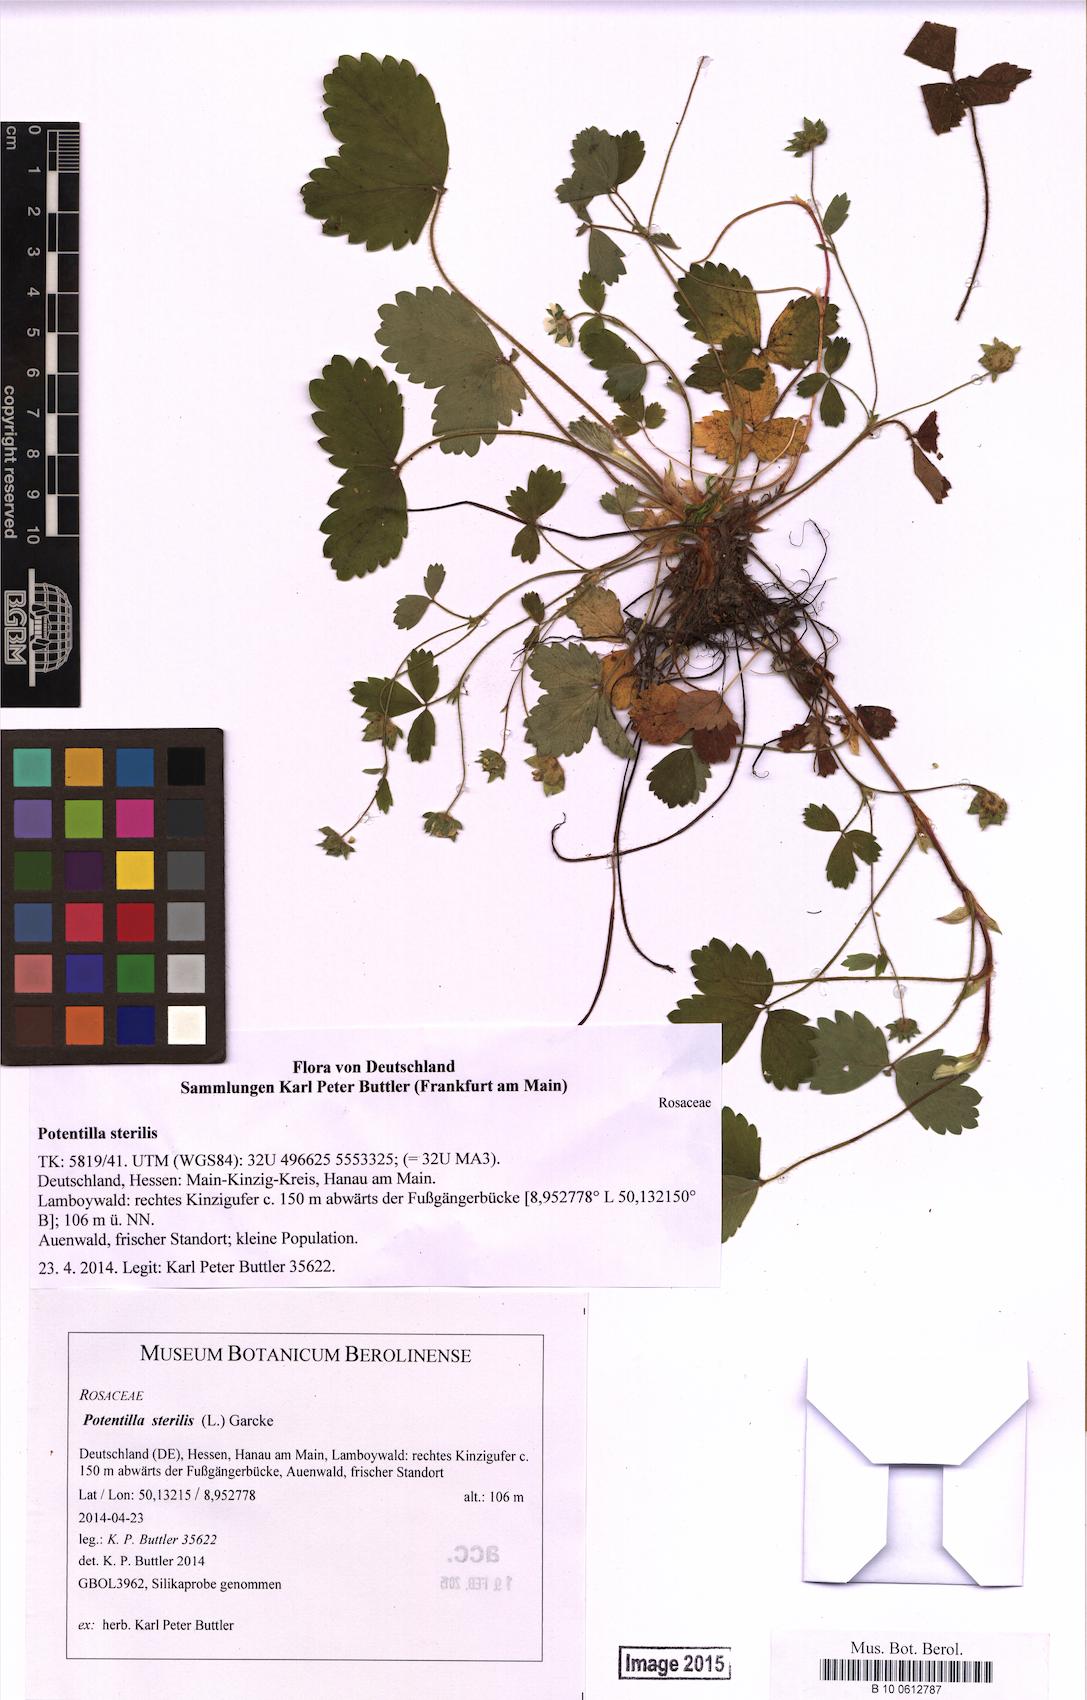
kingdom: Plantae
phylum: Tracheophyta
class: Magnoliopsida
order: Rosales
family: Rosaceae
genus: Potentilla
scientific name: Potentilla sterilis
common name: Barren strawberry
